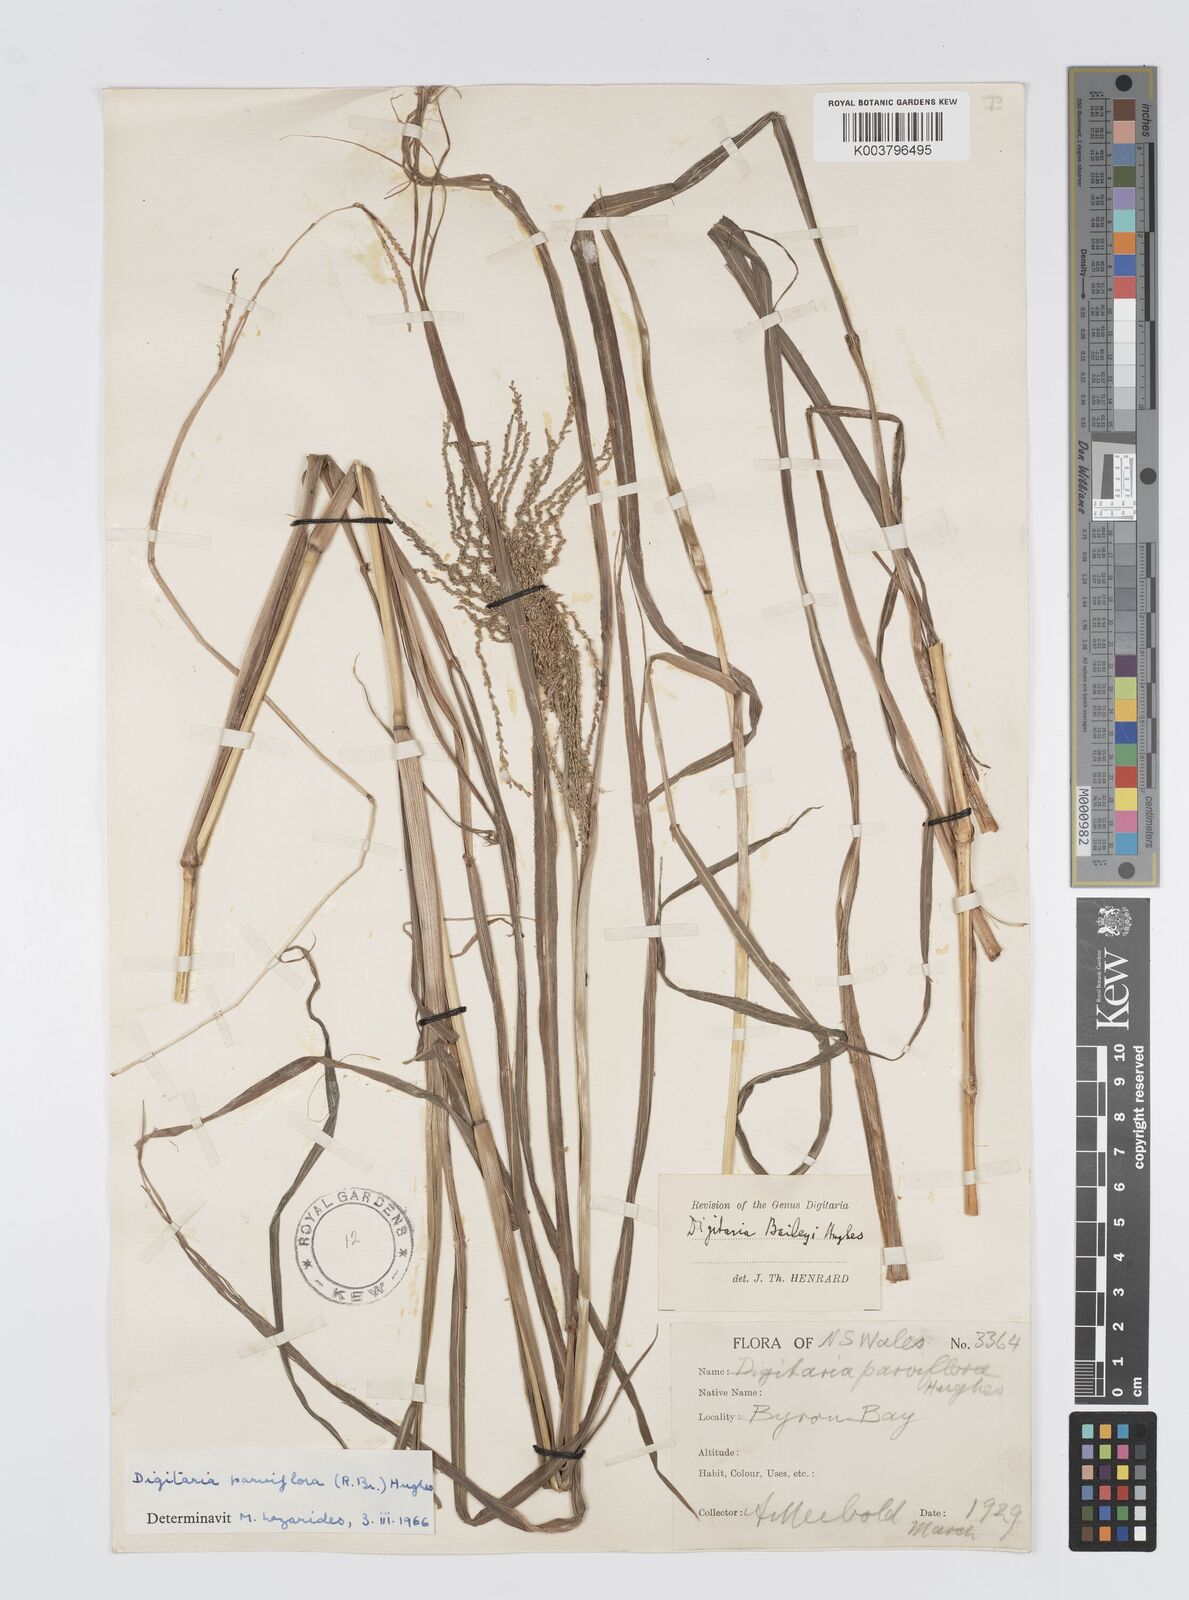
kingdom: Plantae
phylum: Tracheophyta
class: Liliopsida
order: Poales
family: Poaceae
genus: Digitaria
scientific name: Digitaria baileyi
